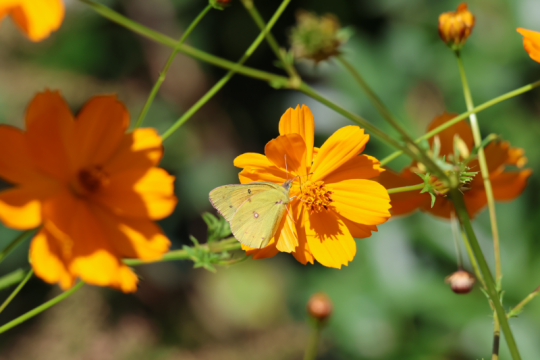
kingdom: Animalia
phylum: Arthropoda
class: Insecta
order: Lepidoptera
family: Pieridae
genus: Colias
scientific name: Colias eurytheme
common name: Orange Sulphur
